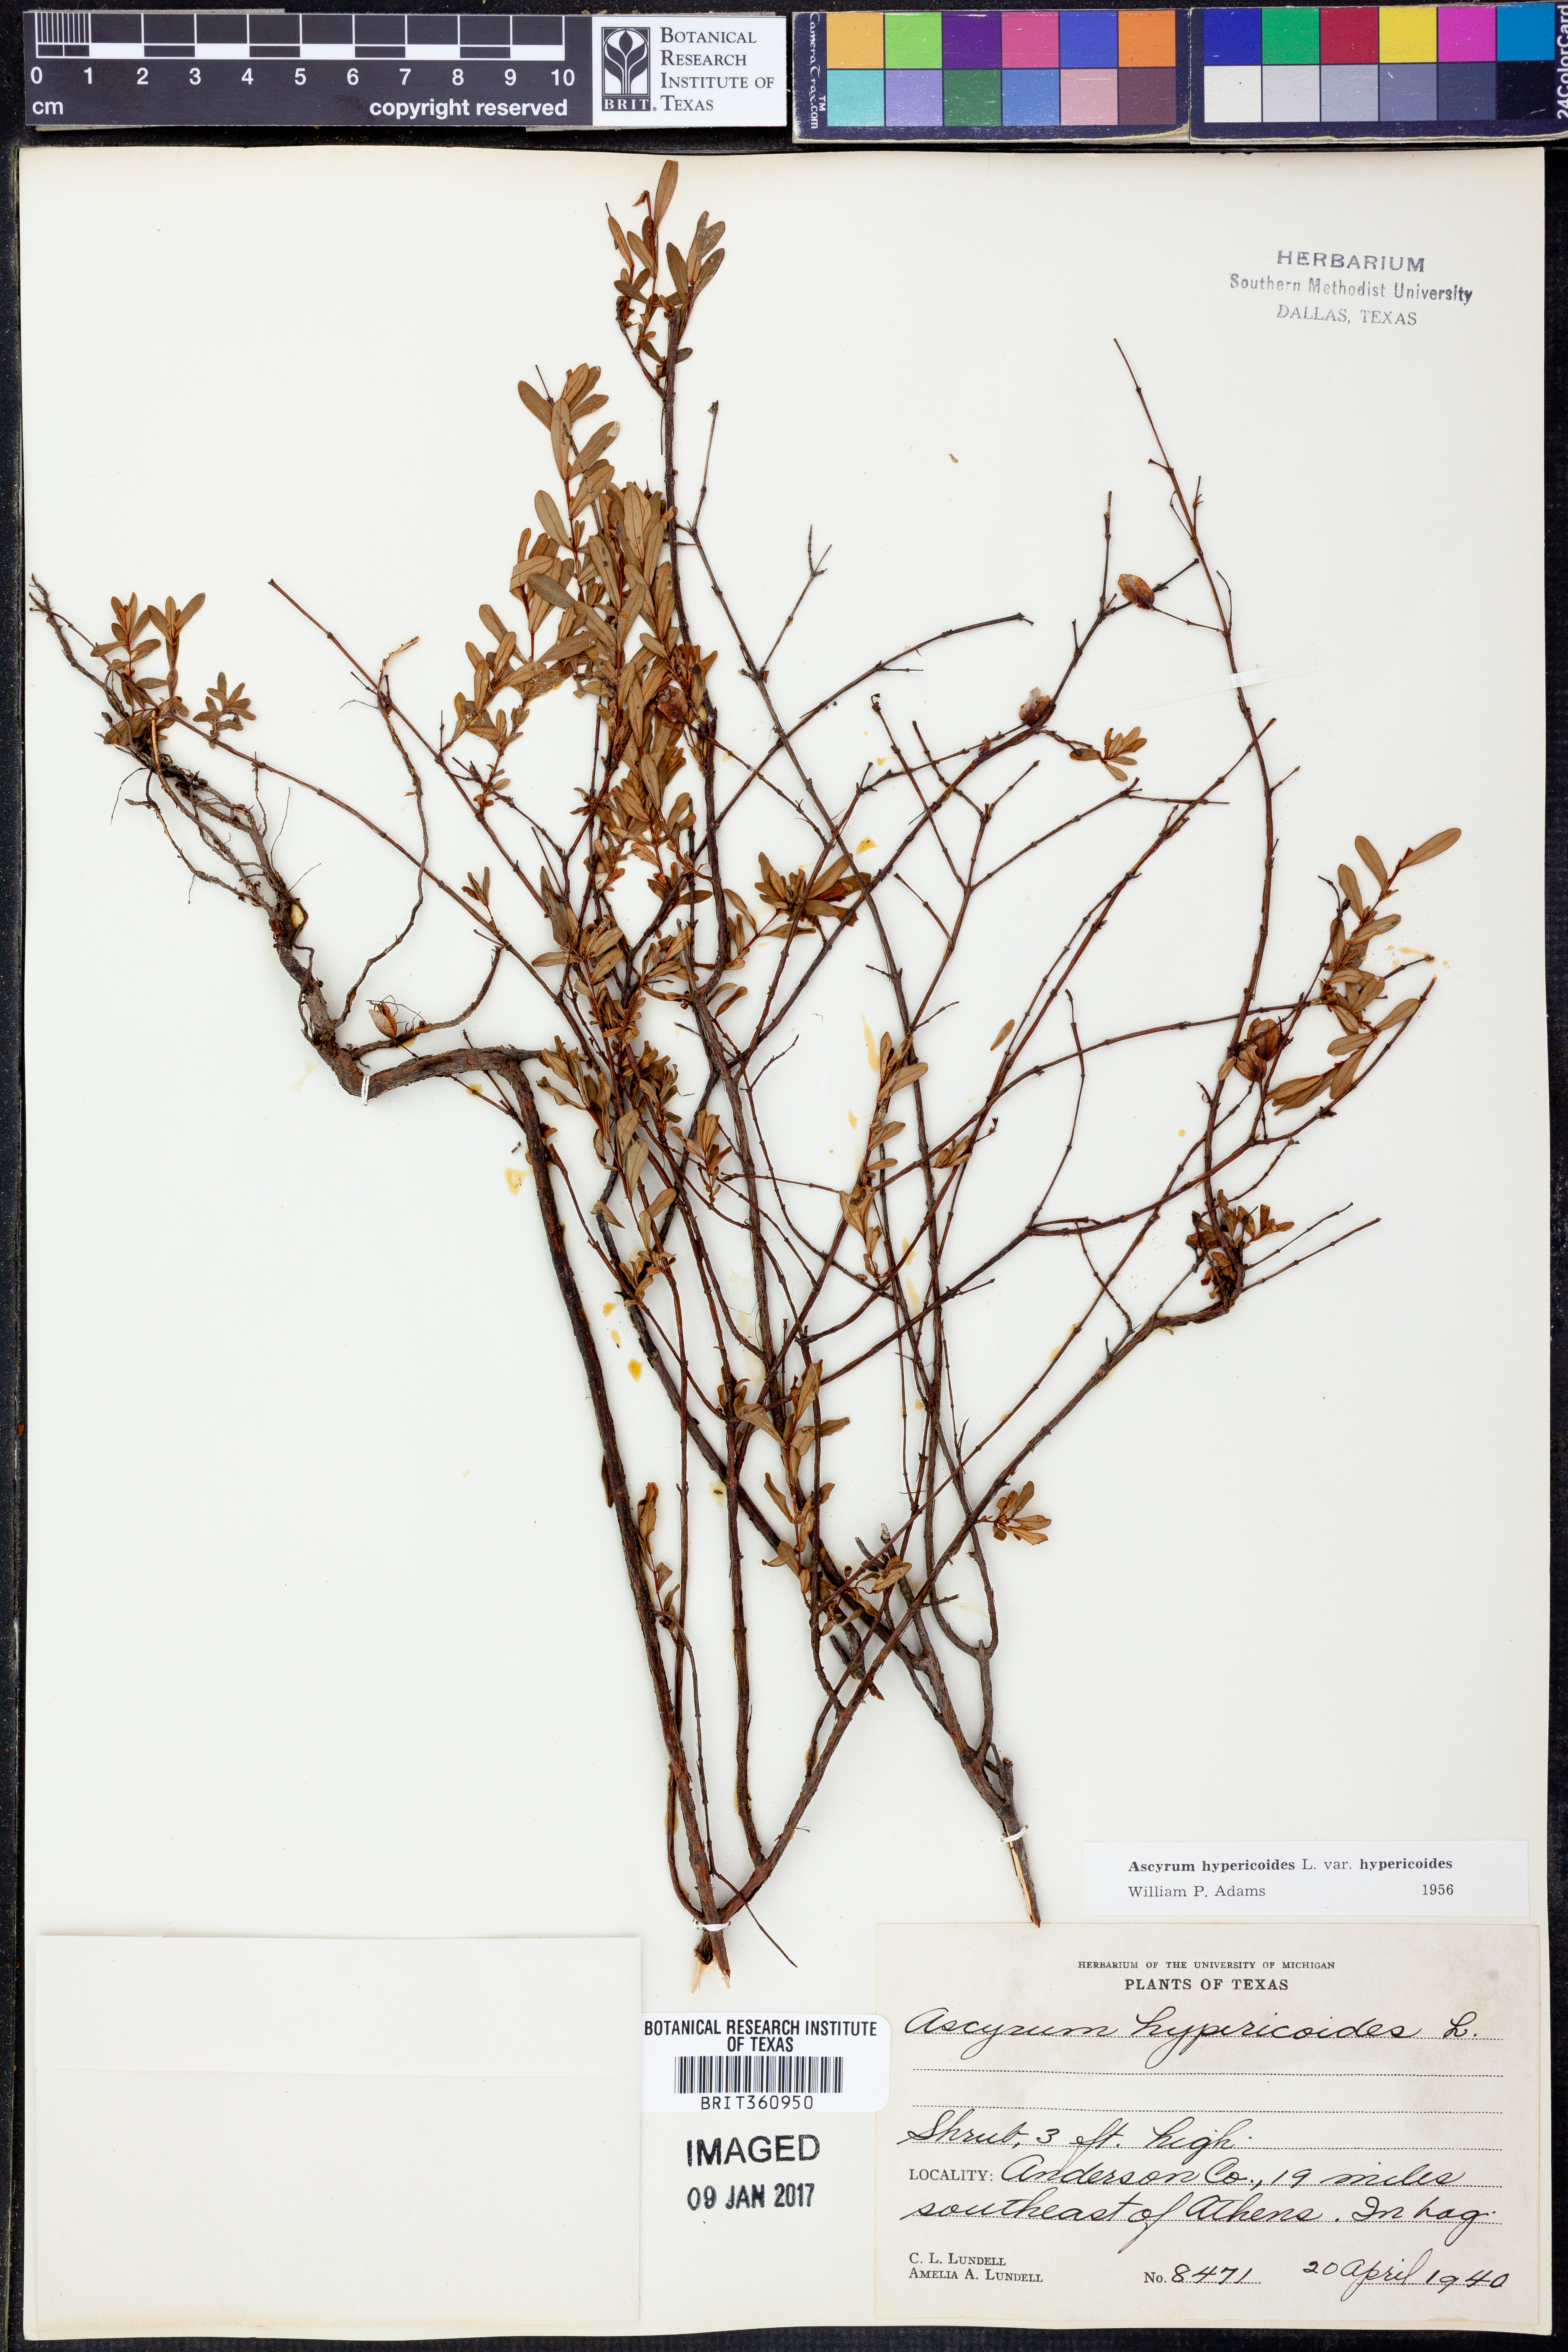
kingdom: Plantae
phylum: Tracheophyta
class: Magnoliopsida
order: Malpighiales
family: Hypericaceae
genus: Hypericum
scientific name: Hypericum hypericoides
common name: St. andrew's cross
